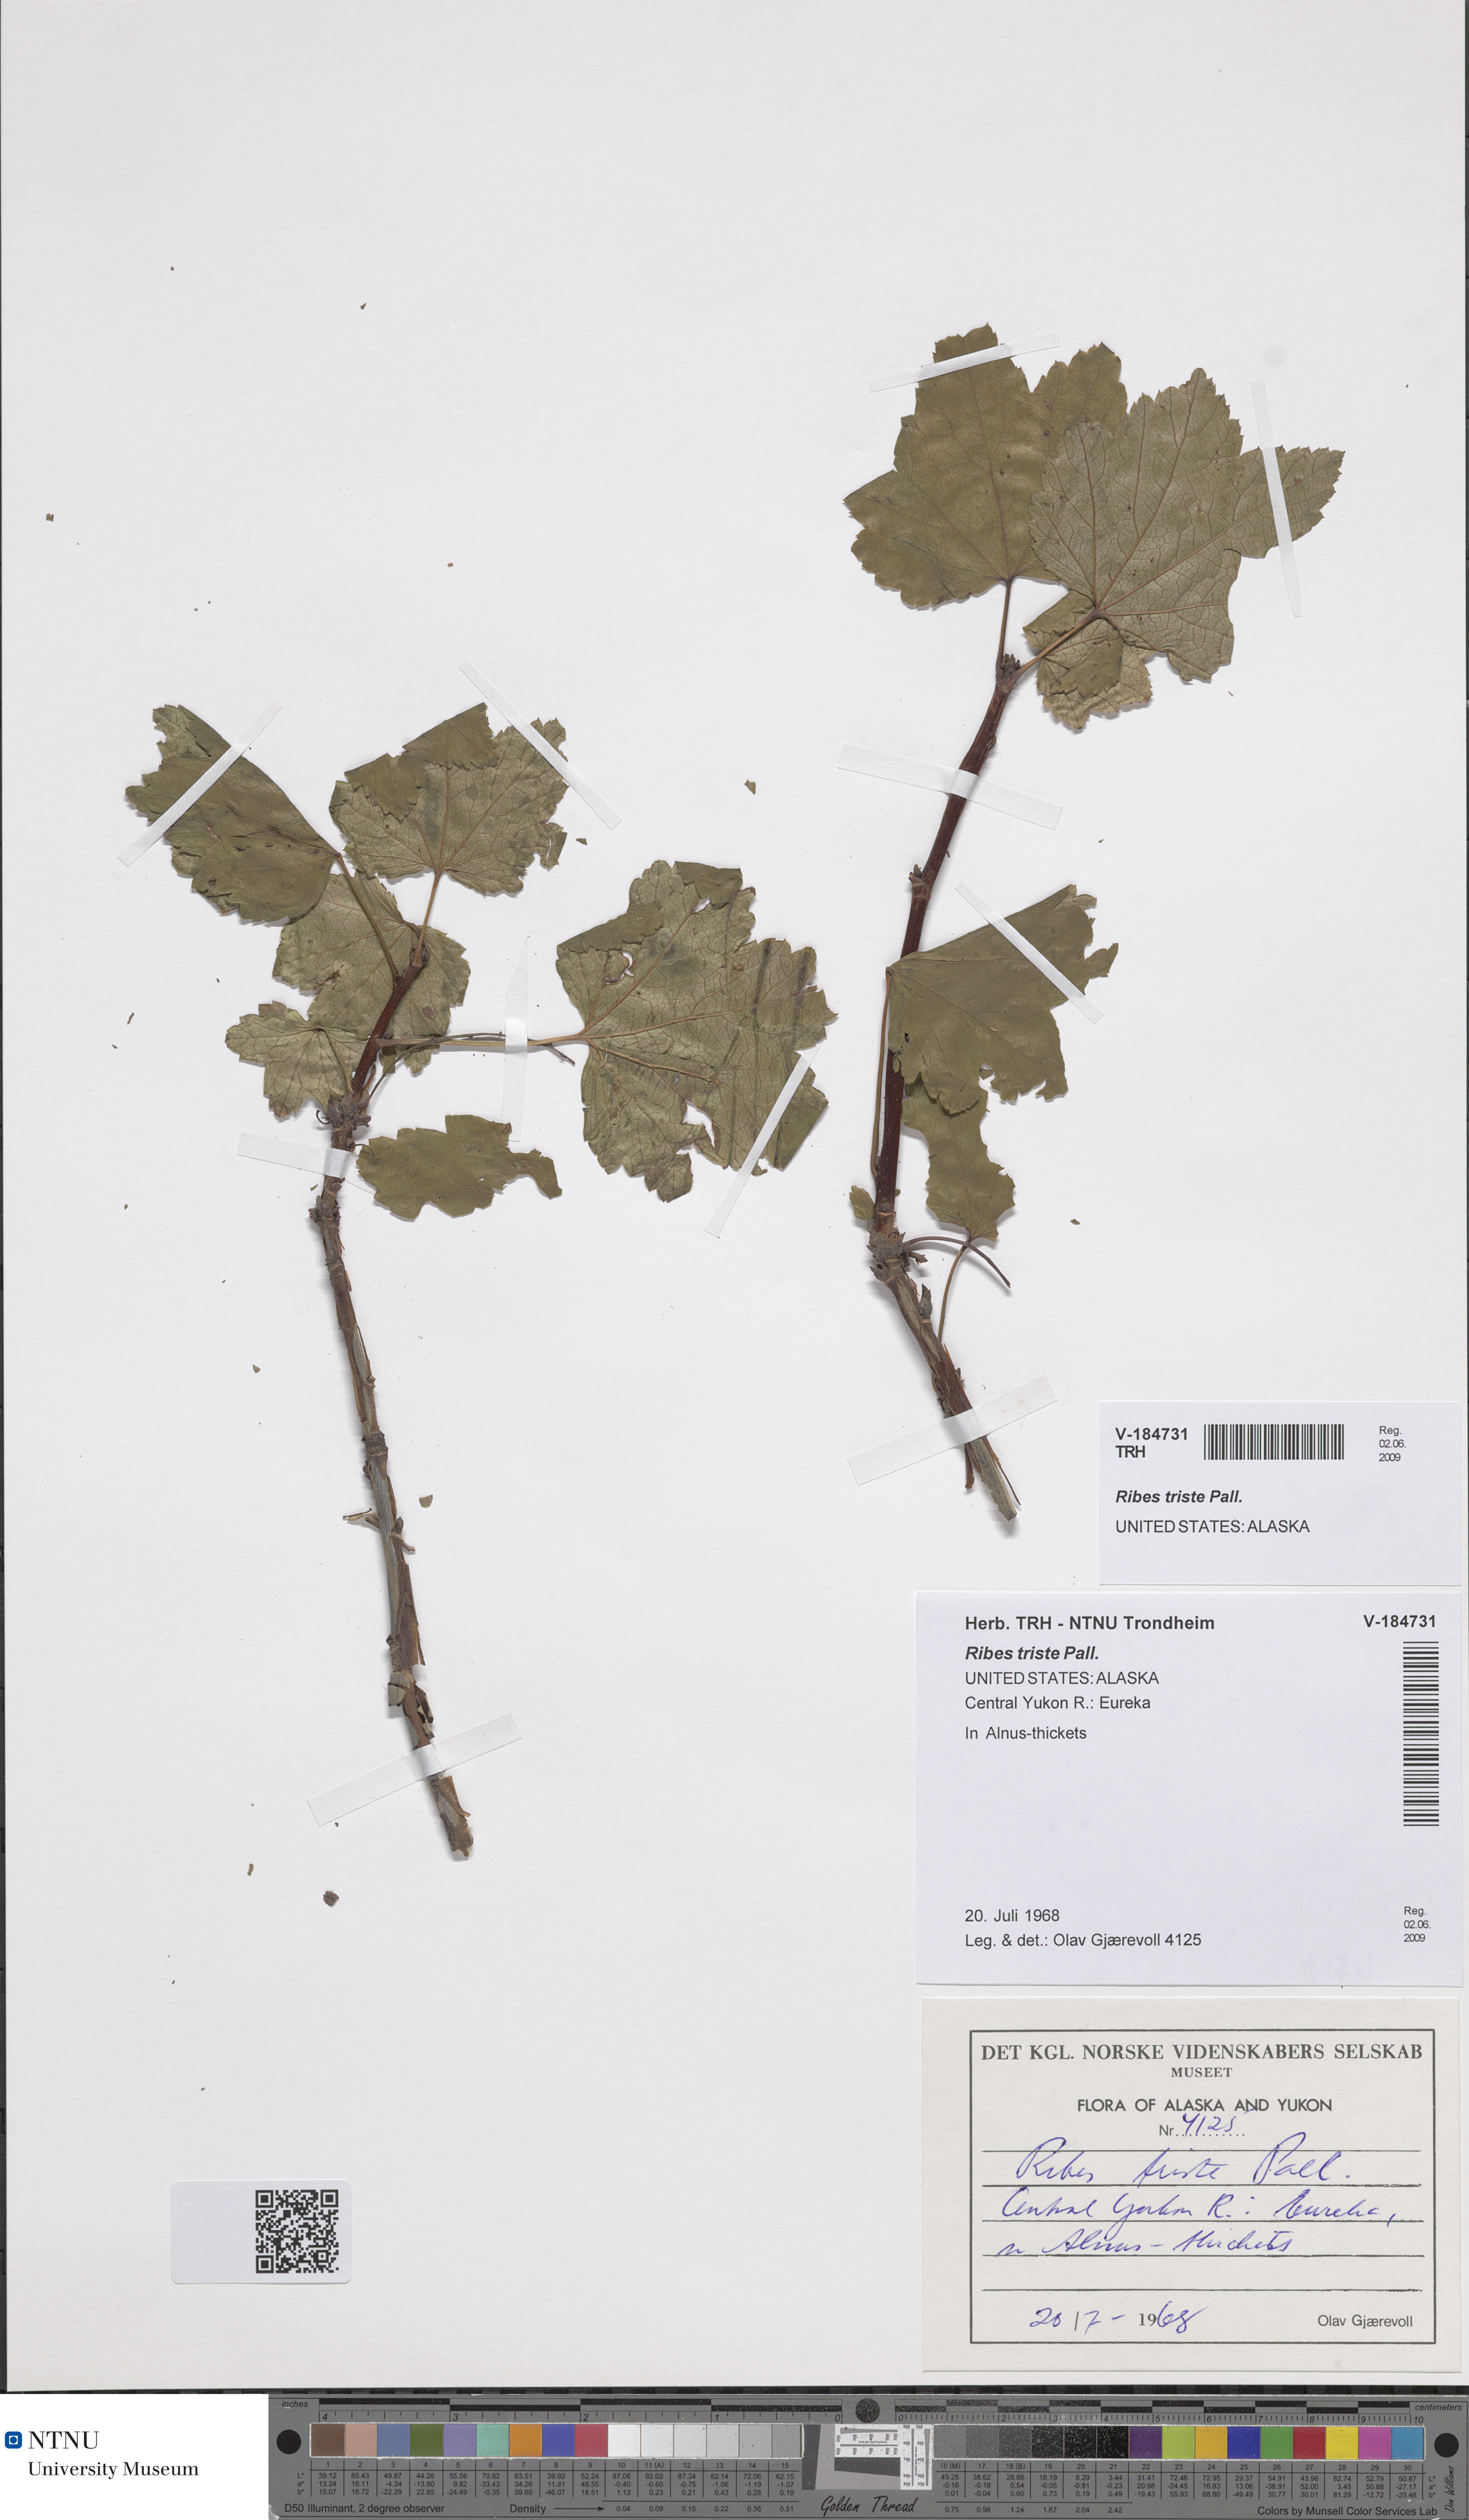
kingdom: Plantae
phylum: Tracheophyta
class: Magnoliopsida
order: Saxifragales
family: Grossulariaceae
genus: Ribes
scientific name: Ribes triste
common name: Swamp red currant
